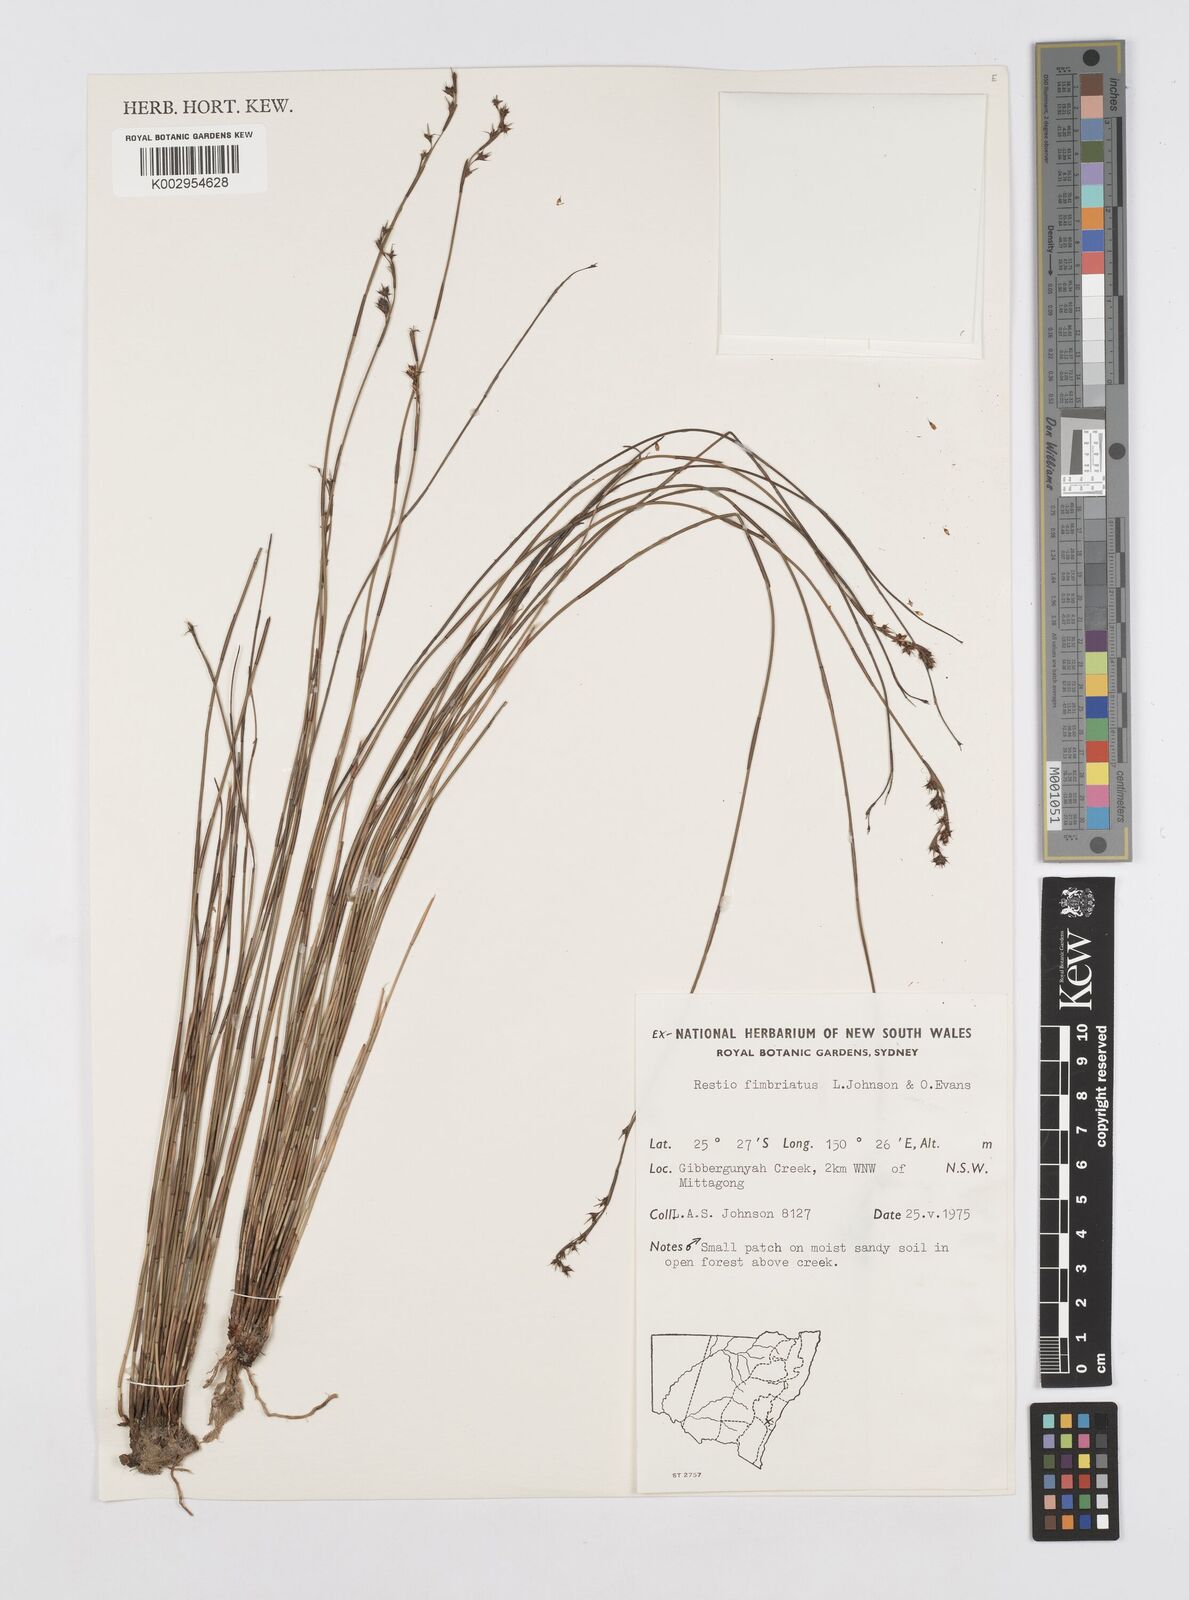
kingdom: Plantae
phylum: Tracheophyta
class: Liliopsida
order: Poales
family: Restionaceae
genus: Baloskion
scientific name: Baloskion fimbriatum
